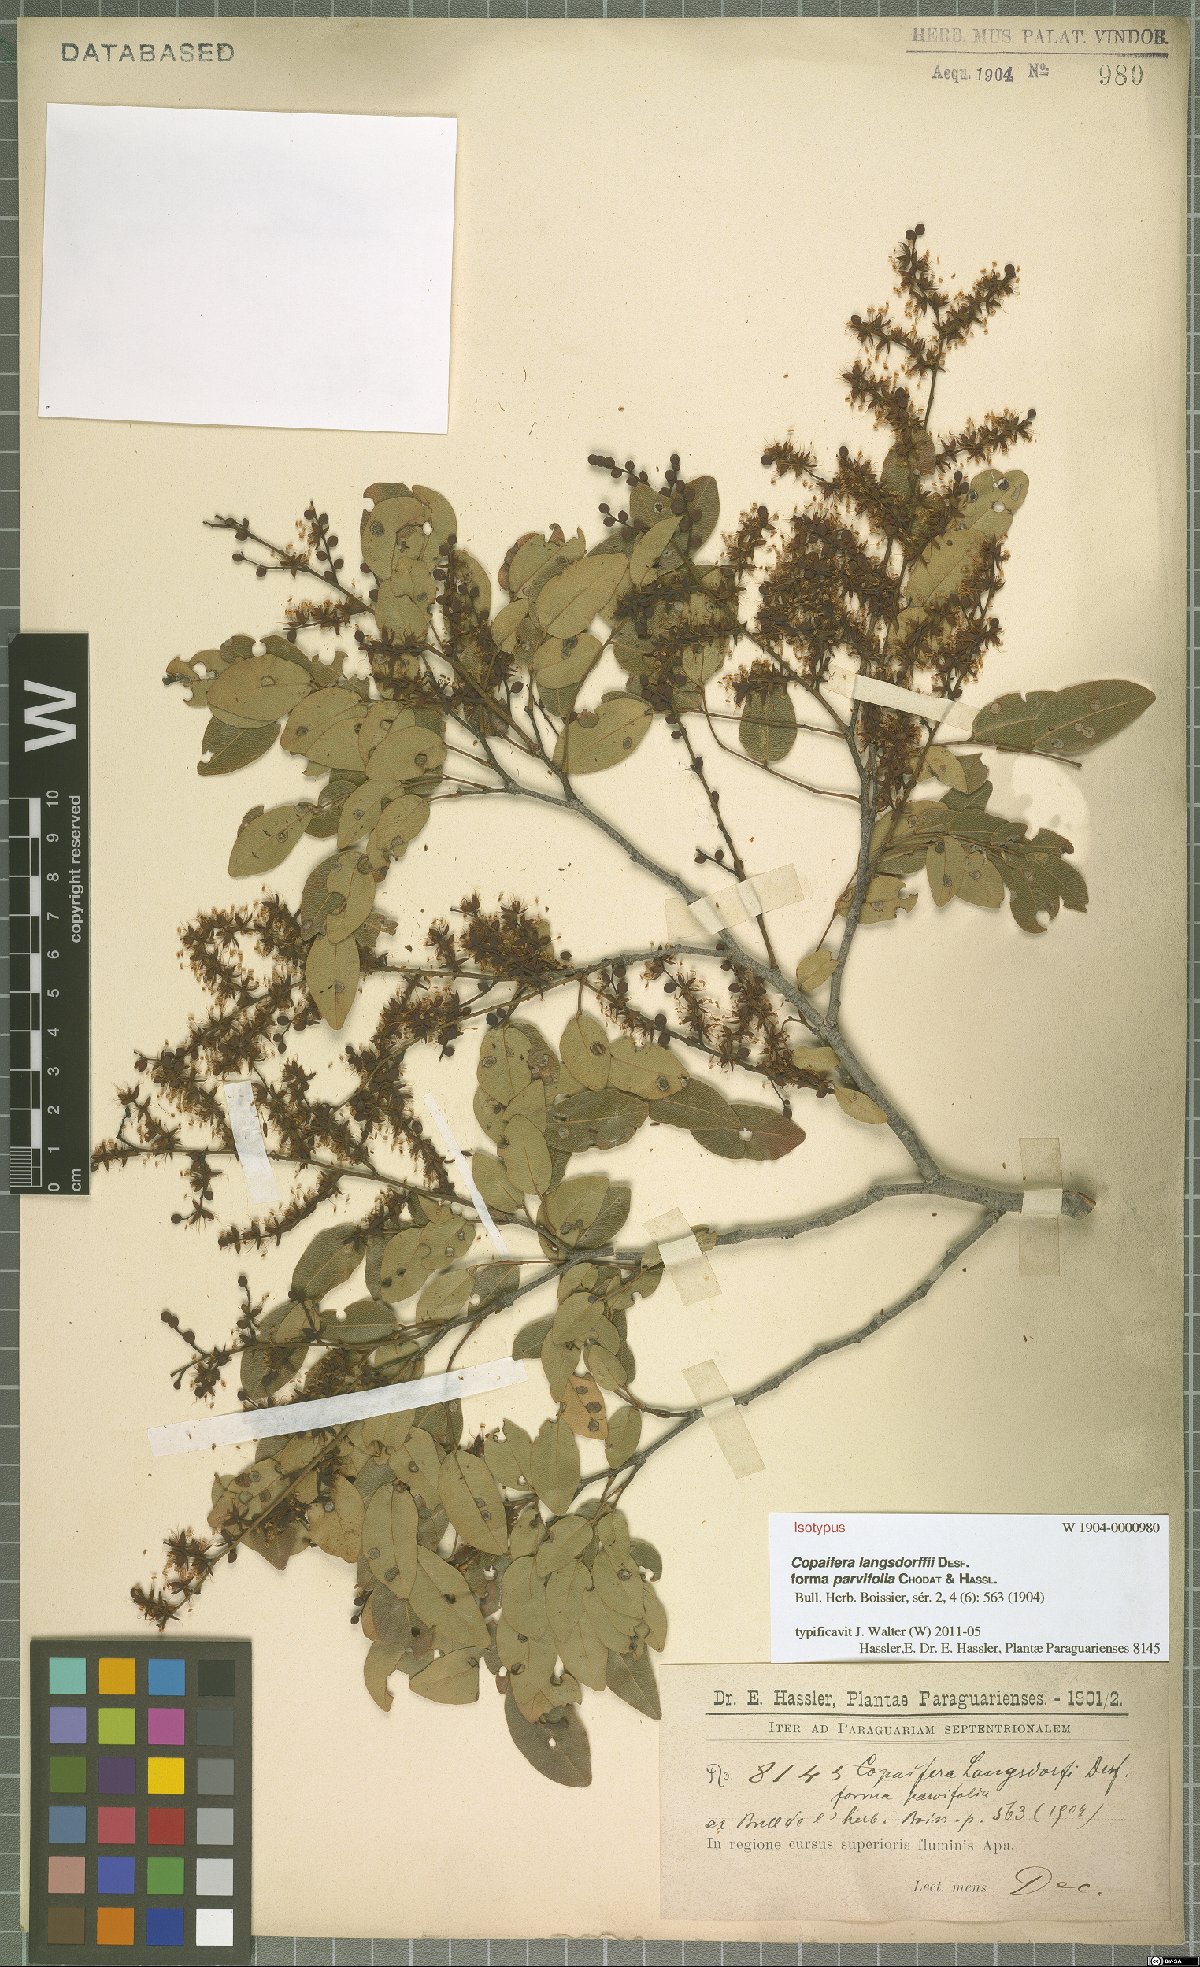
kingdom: Plantae
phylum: Tracheophyta
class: Magnoliopsida
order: Fabales
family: Fabaceae
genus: Copaifera
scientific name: Copaifera langsdorffii
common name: Brazilian diesel tree
